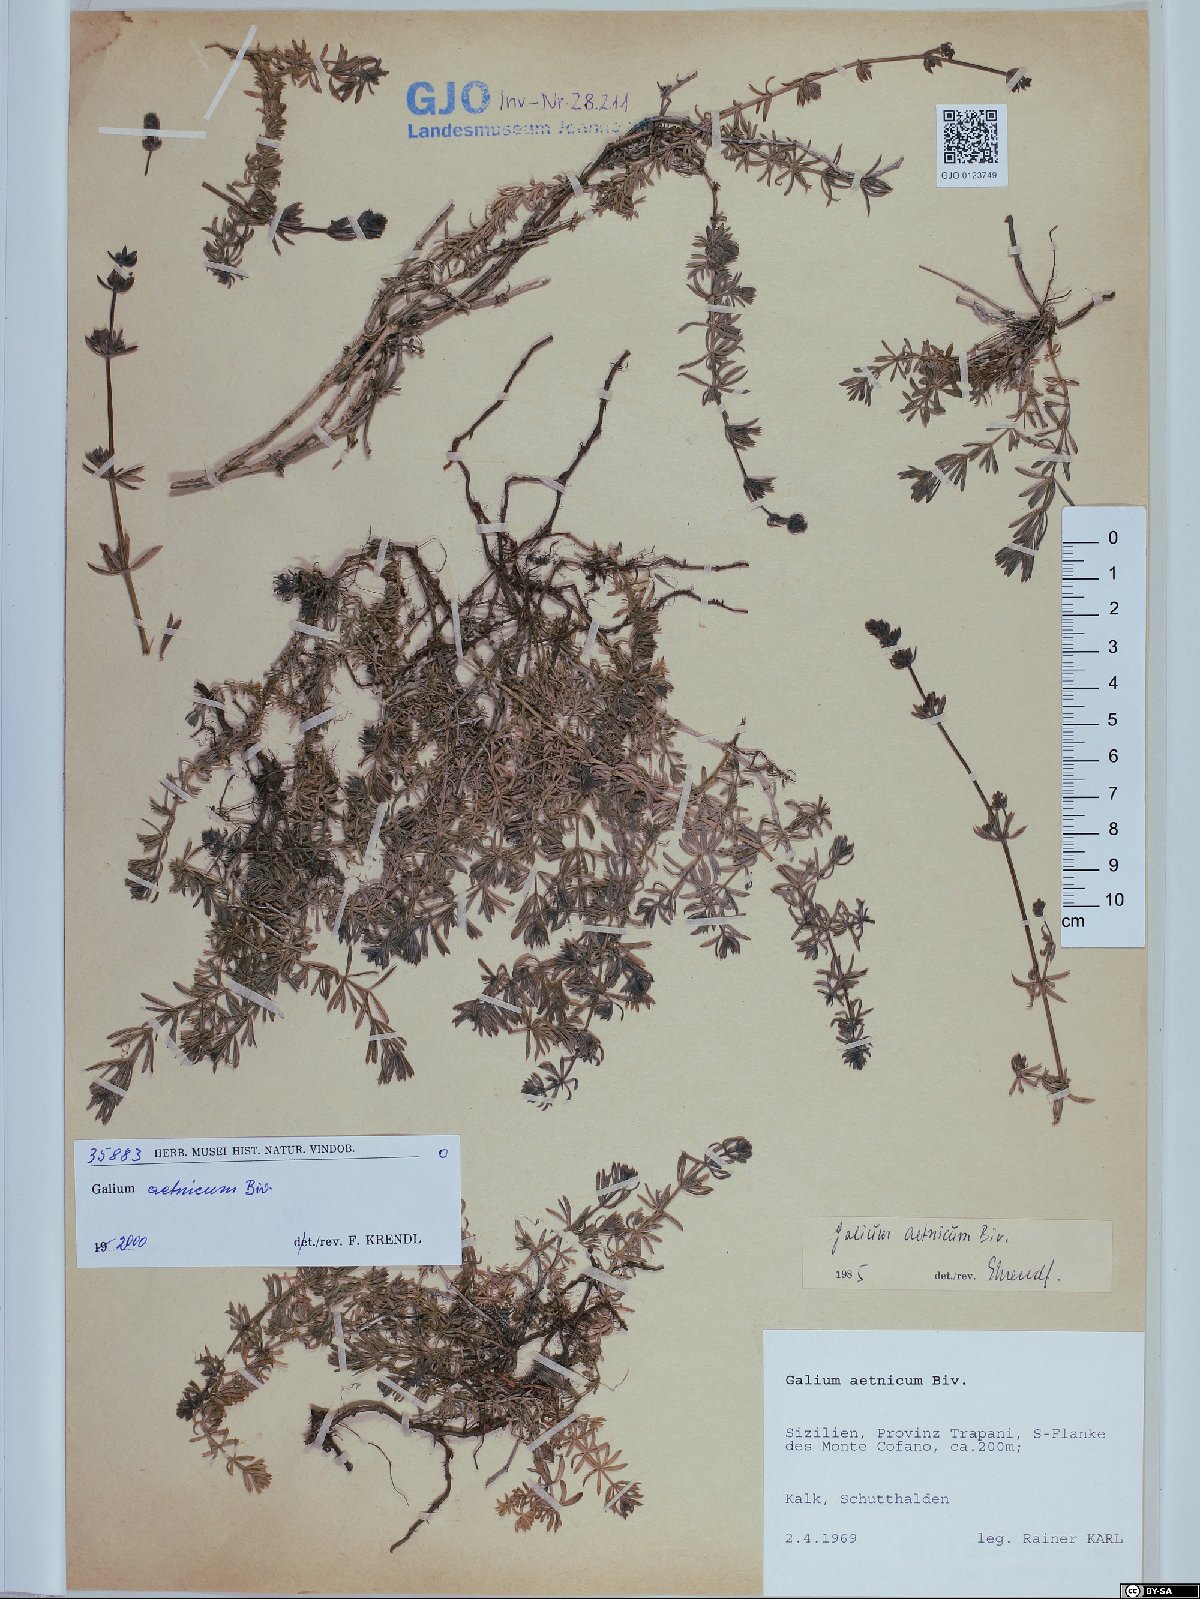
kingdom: Plantae
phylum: Tracheophyta
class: Magnoliopsida
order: Gentianales
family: Rubiaceae
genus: Galium
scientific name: Galium aetnicum
